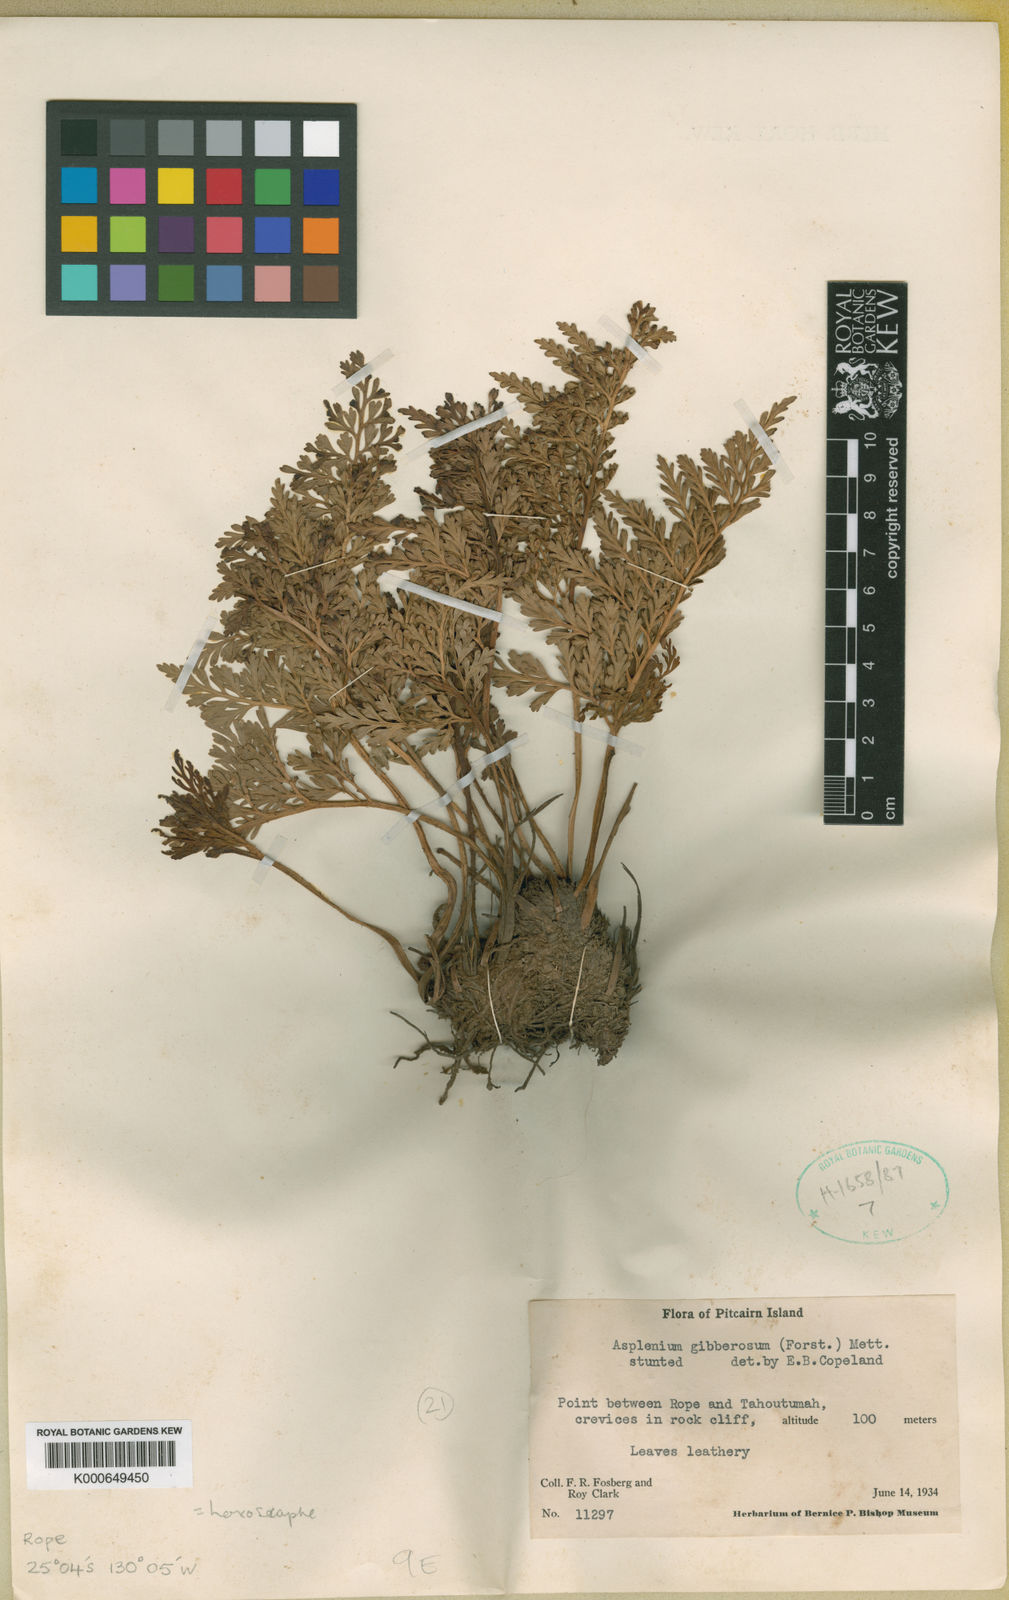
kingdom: Plantae
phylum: Tracheophyta
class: Polypodiopsida
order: Polypodiales
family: Aspleniaceae
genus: Asplenium
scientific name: Asplenium gibberosum
